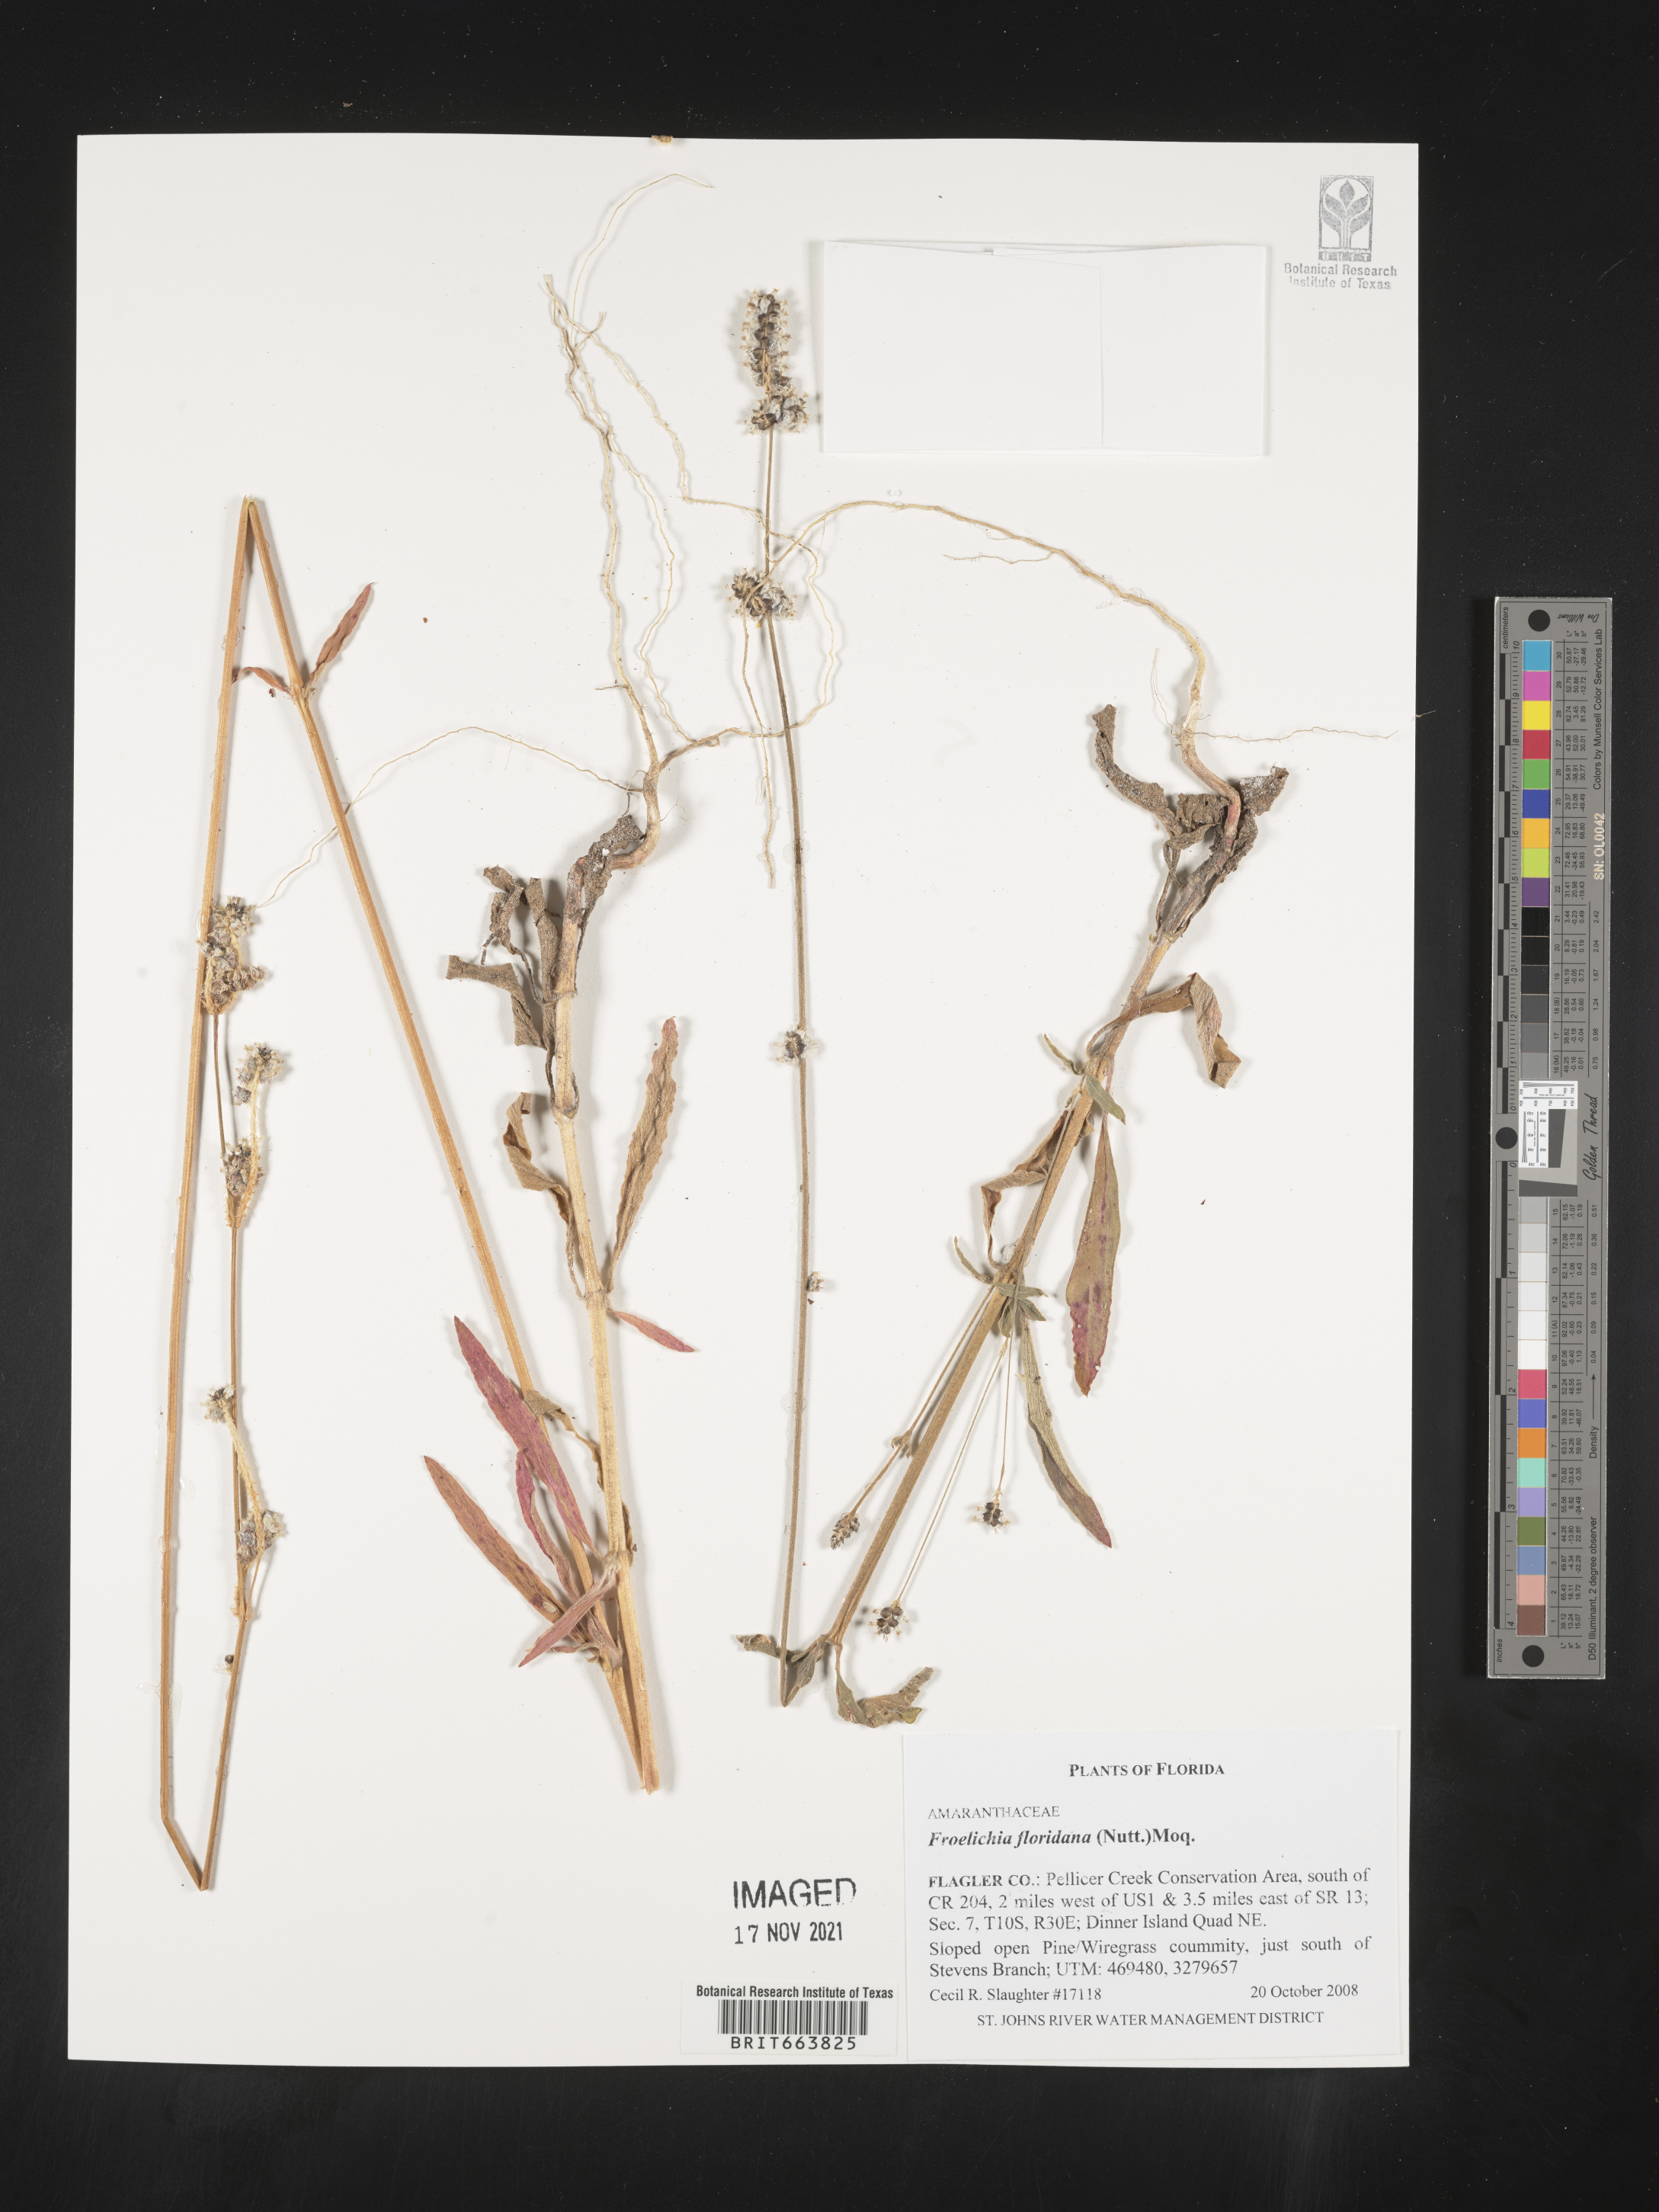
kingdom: Plantae
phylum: Tracheophyta
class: Magnoliopsida
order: Caryophyllales
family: Amaranthaceae
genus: Froelichia
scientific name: Froelichia floridana
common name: Florida snake-cotton
